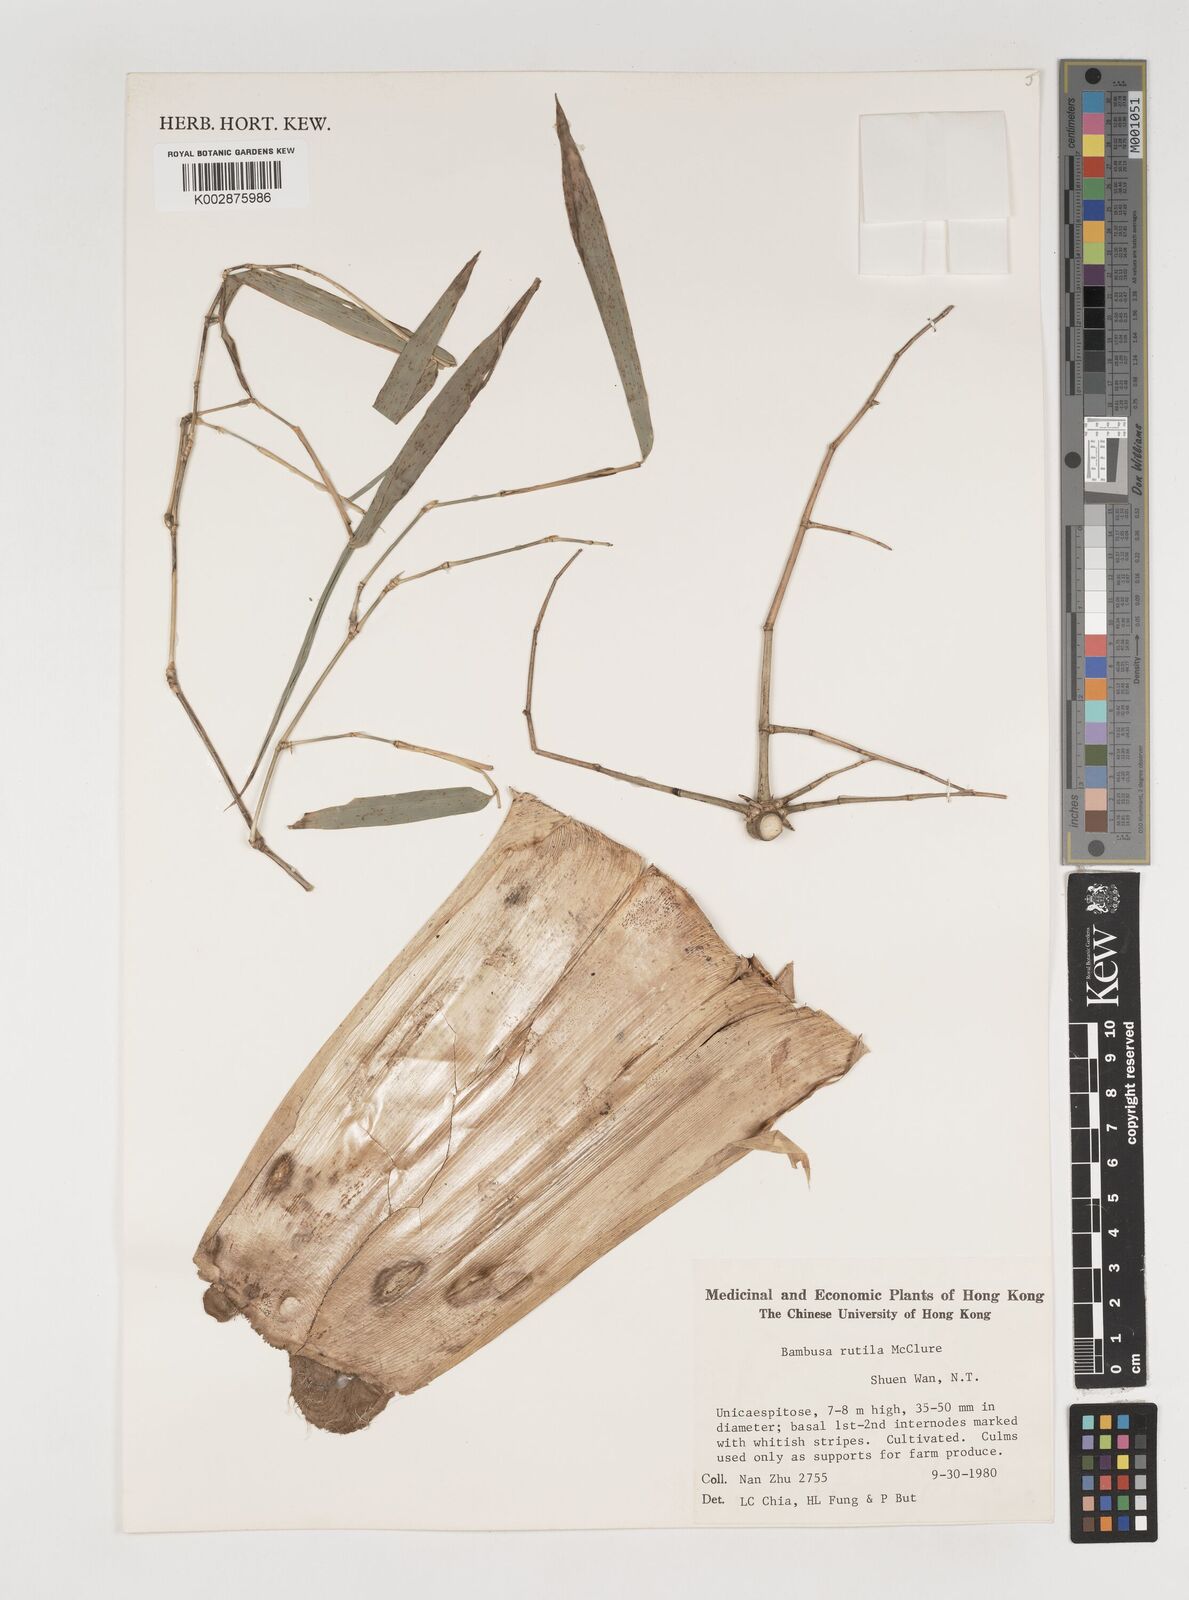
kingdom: Plantae
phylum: Tracheophyta
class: Liliopsida
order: Poales
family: Poaceae
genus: Bambusa
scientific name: Bambusa rutila
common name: Muk bamboo
